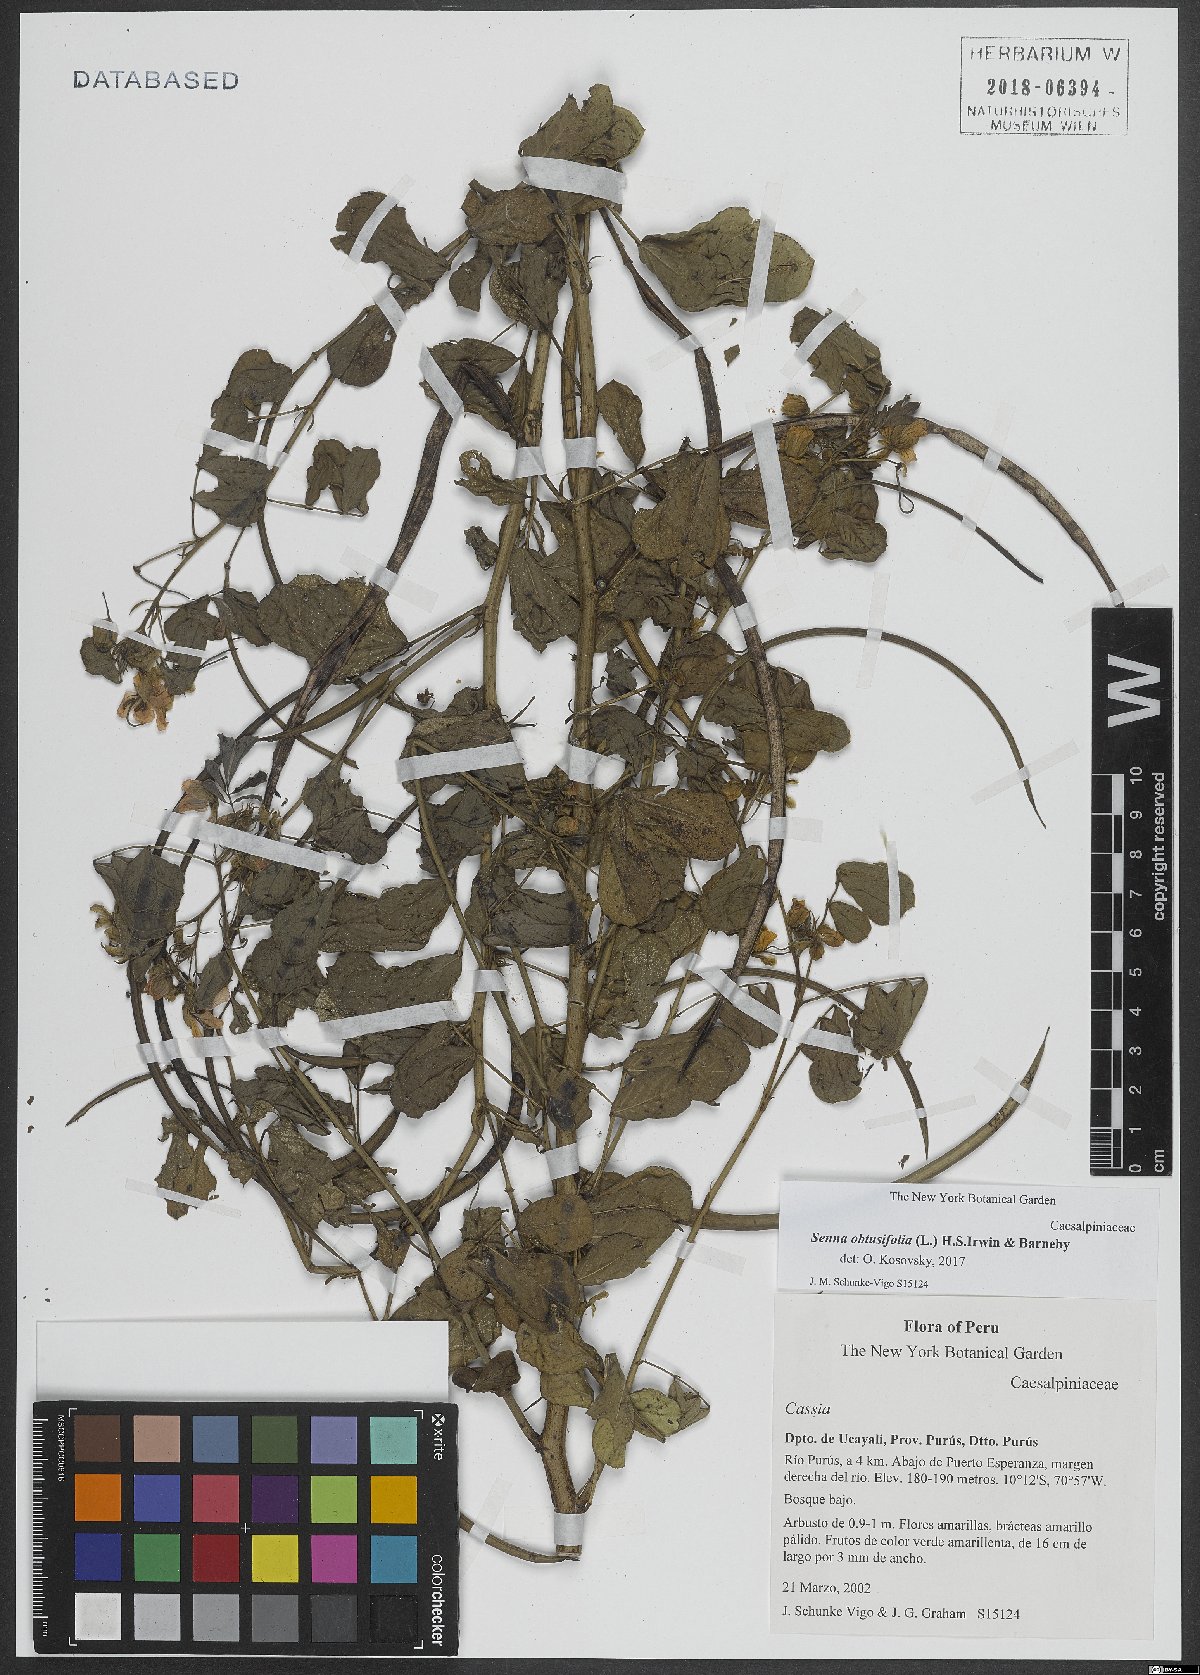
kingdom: Plantae
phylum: Tracheophyta
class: Magnoliopsida
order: Fabales
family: Fabaceae
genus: Senna
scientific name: Senna obtusifolia
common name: Java-bean
